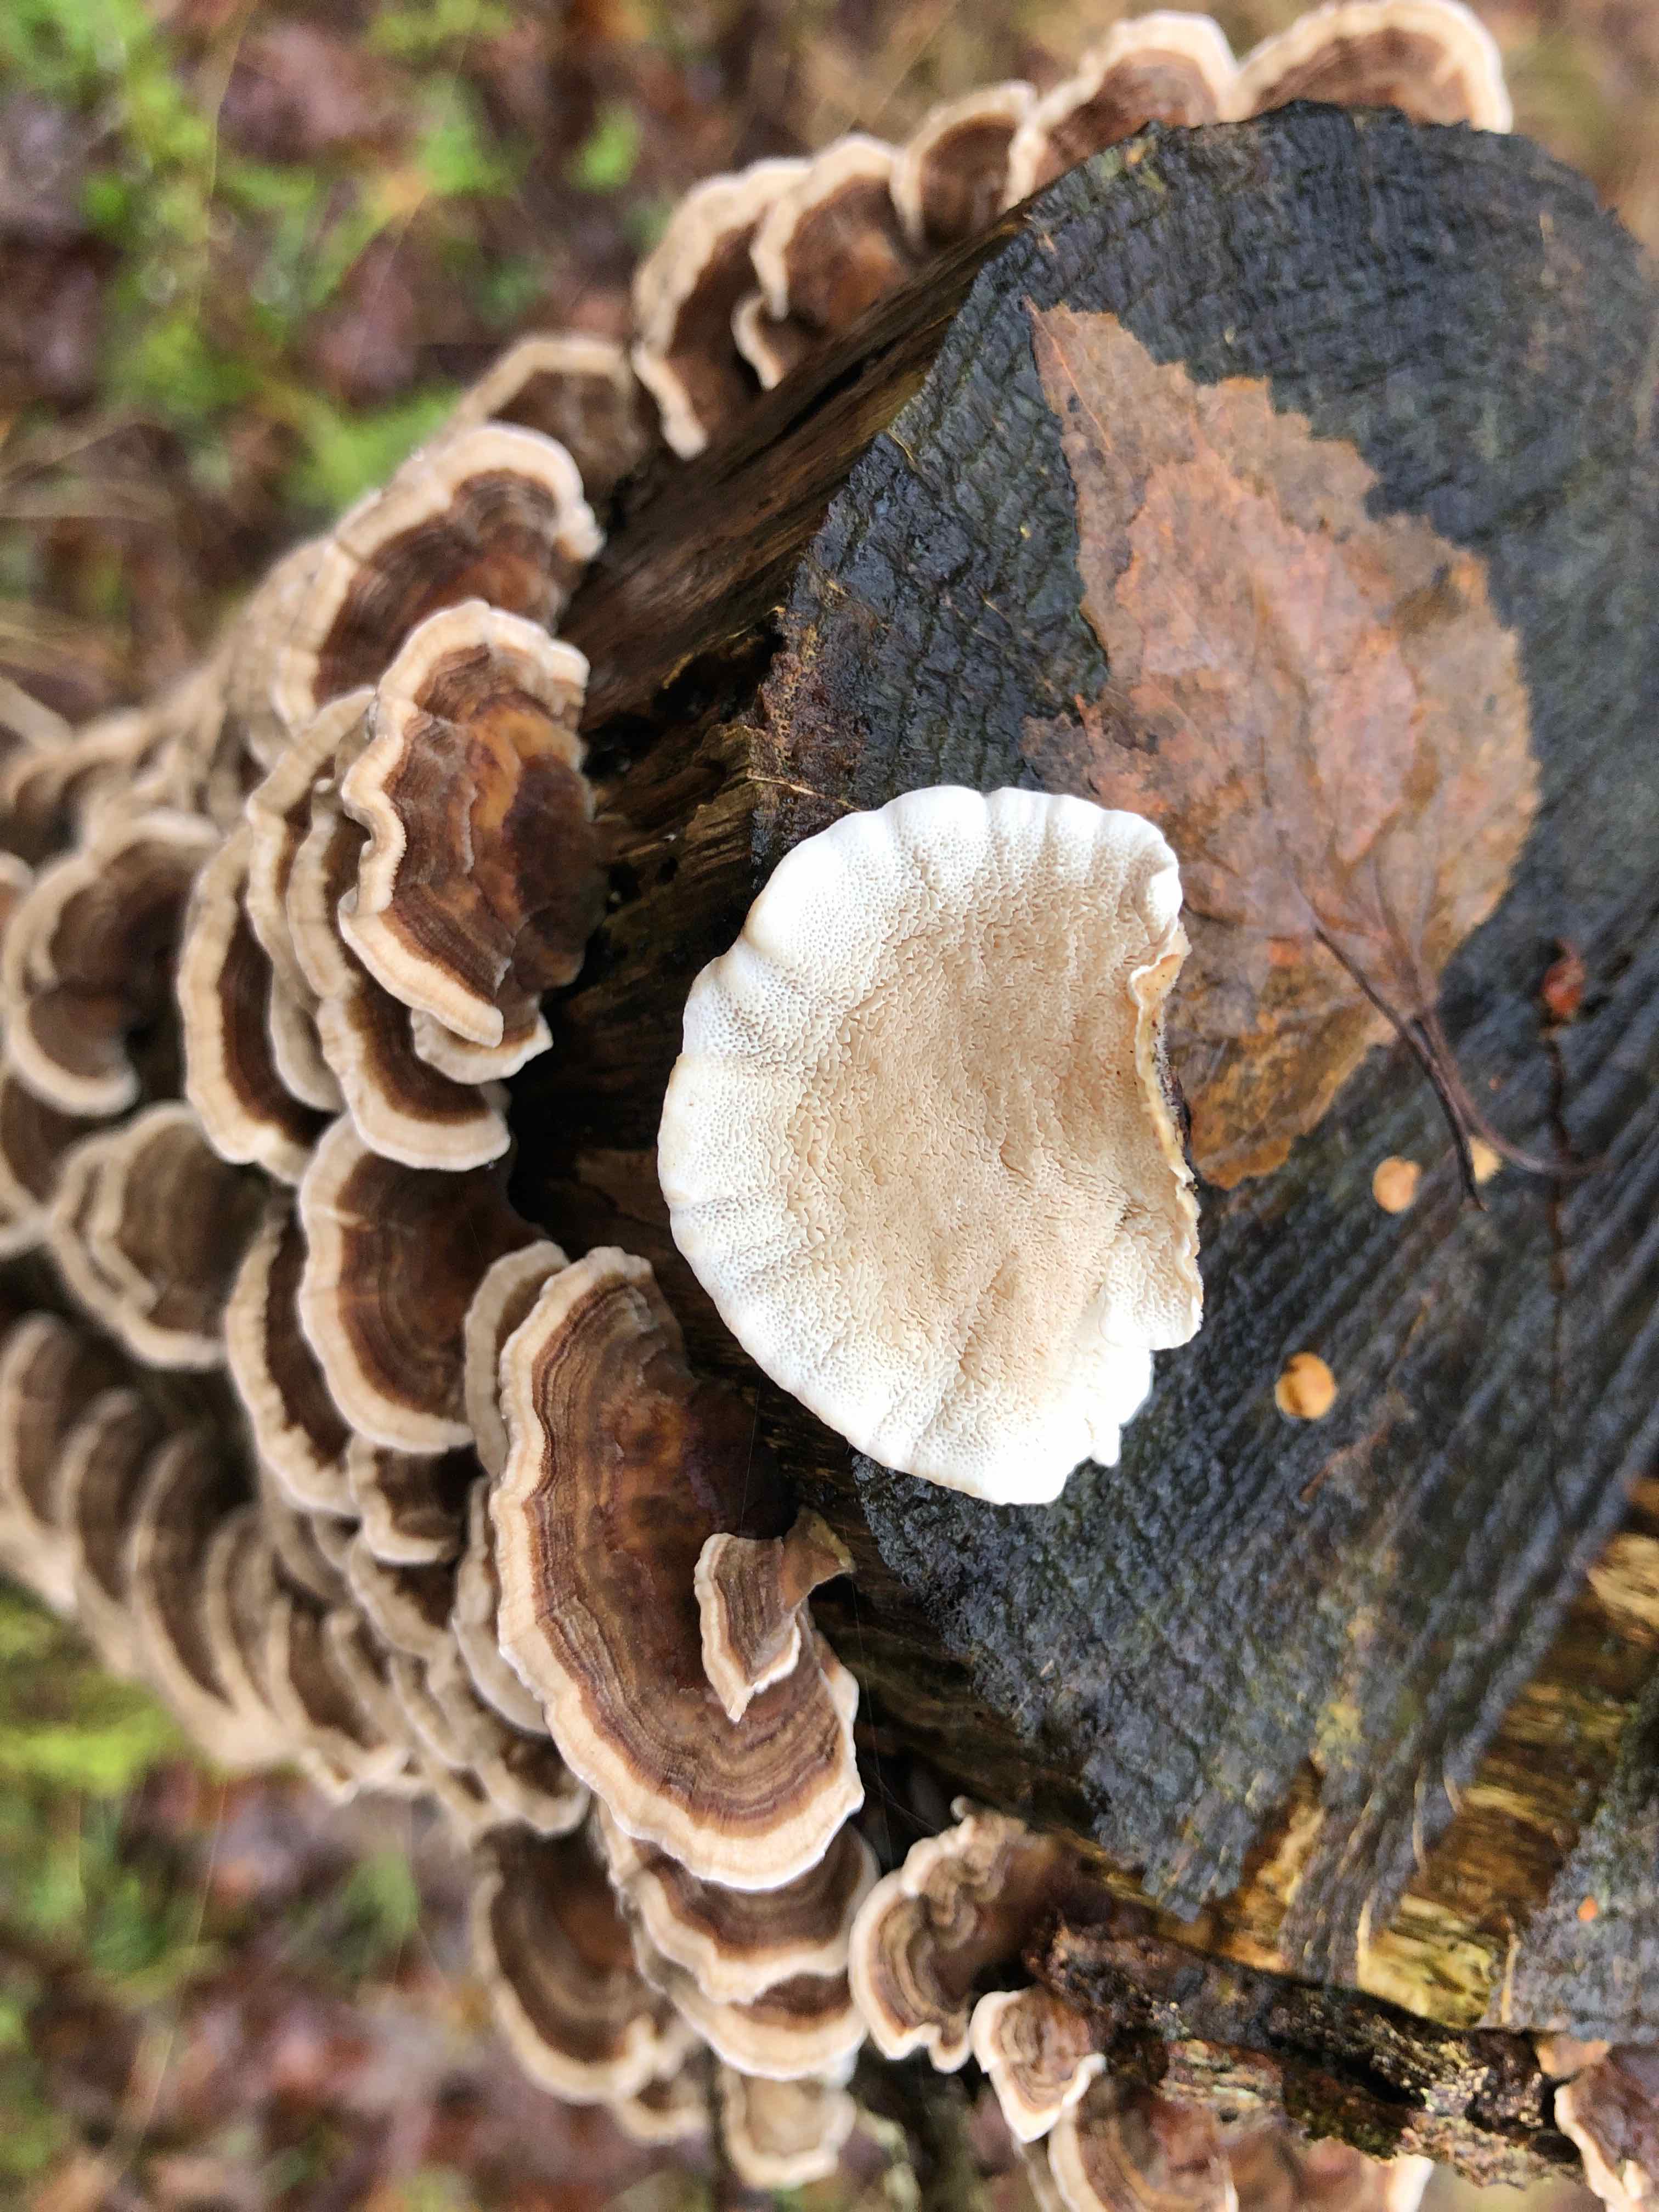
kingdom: Fungi
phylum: Basidiomycota
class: Agaricomycetes
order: Polyporales
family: Polyporaceae
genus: Trametes
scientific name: Trametes versicolor
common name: broget læderporesvamp
